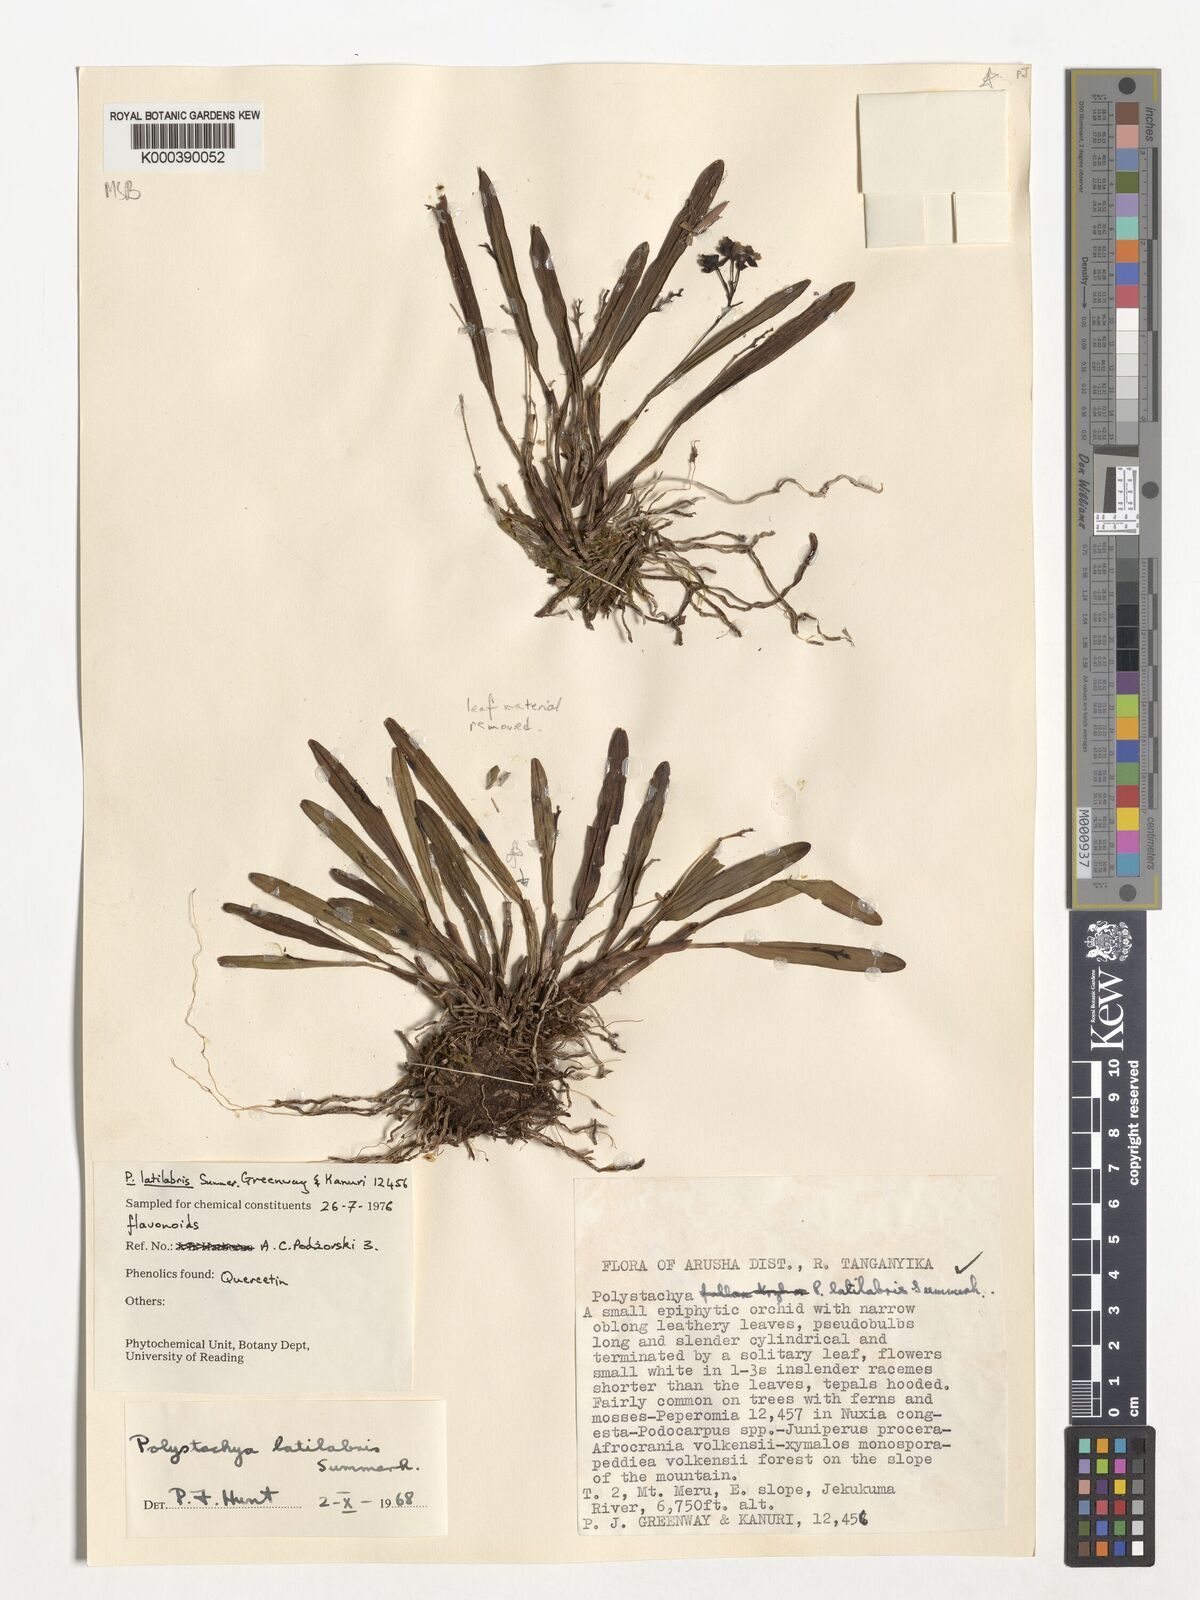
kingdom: Plantae
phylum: Tracheophyta
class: Liliopsida
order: Asparagales
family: Orchidaceae
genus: Polystachya
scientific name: Polystachya caespitifica
